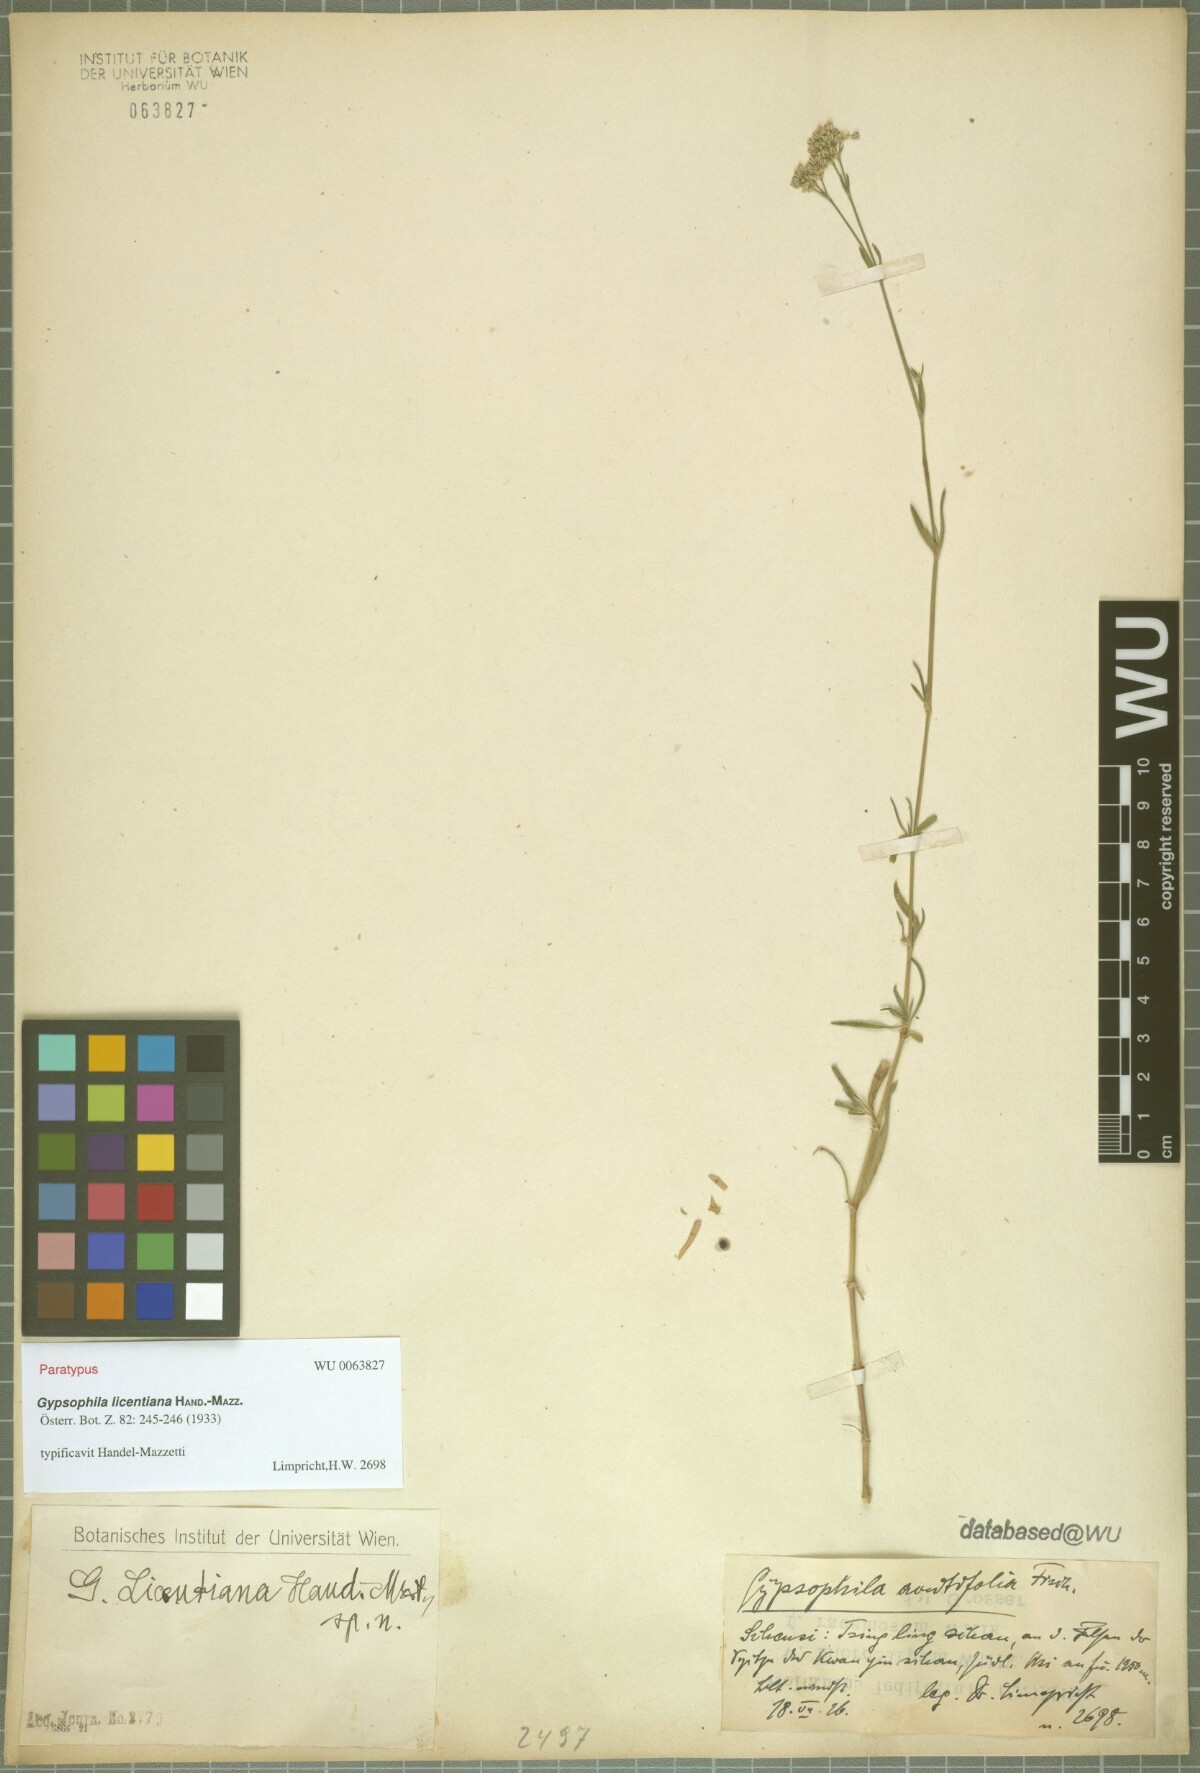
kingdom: Plantae
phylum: Tracheophyta
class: Magnoliopsida
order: Caryophyllales
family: Caryophyllaceae
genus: Gypsophila
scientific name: Gypsophila licentiana
